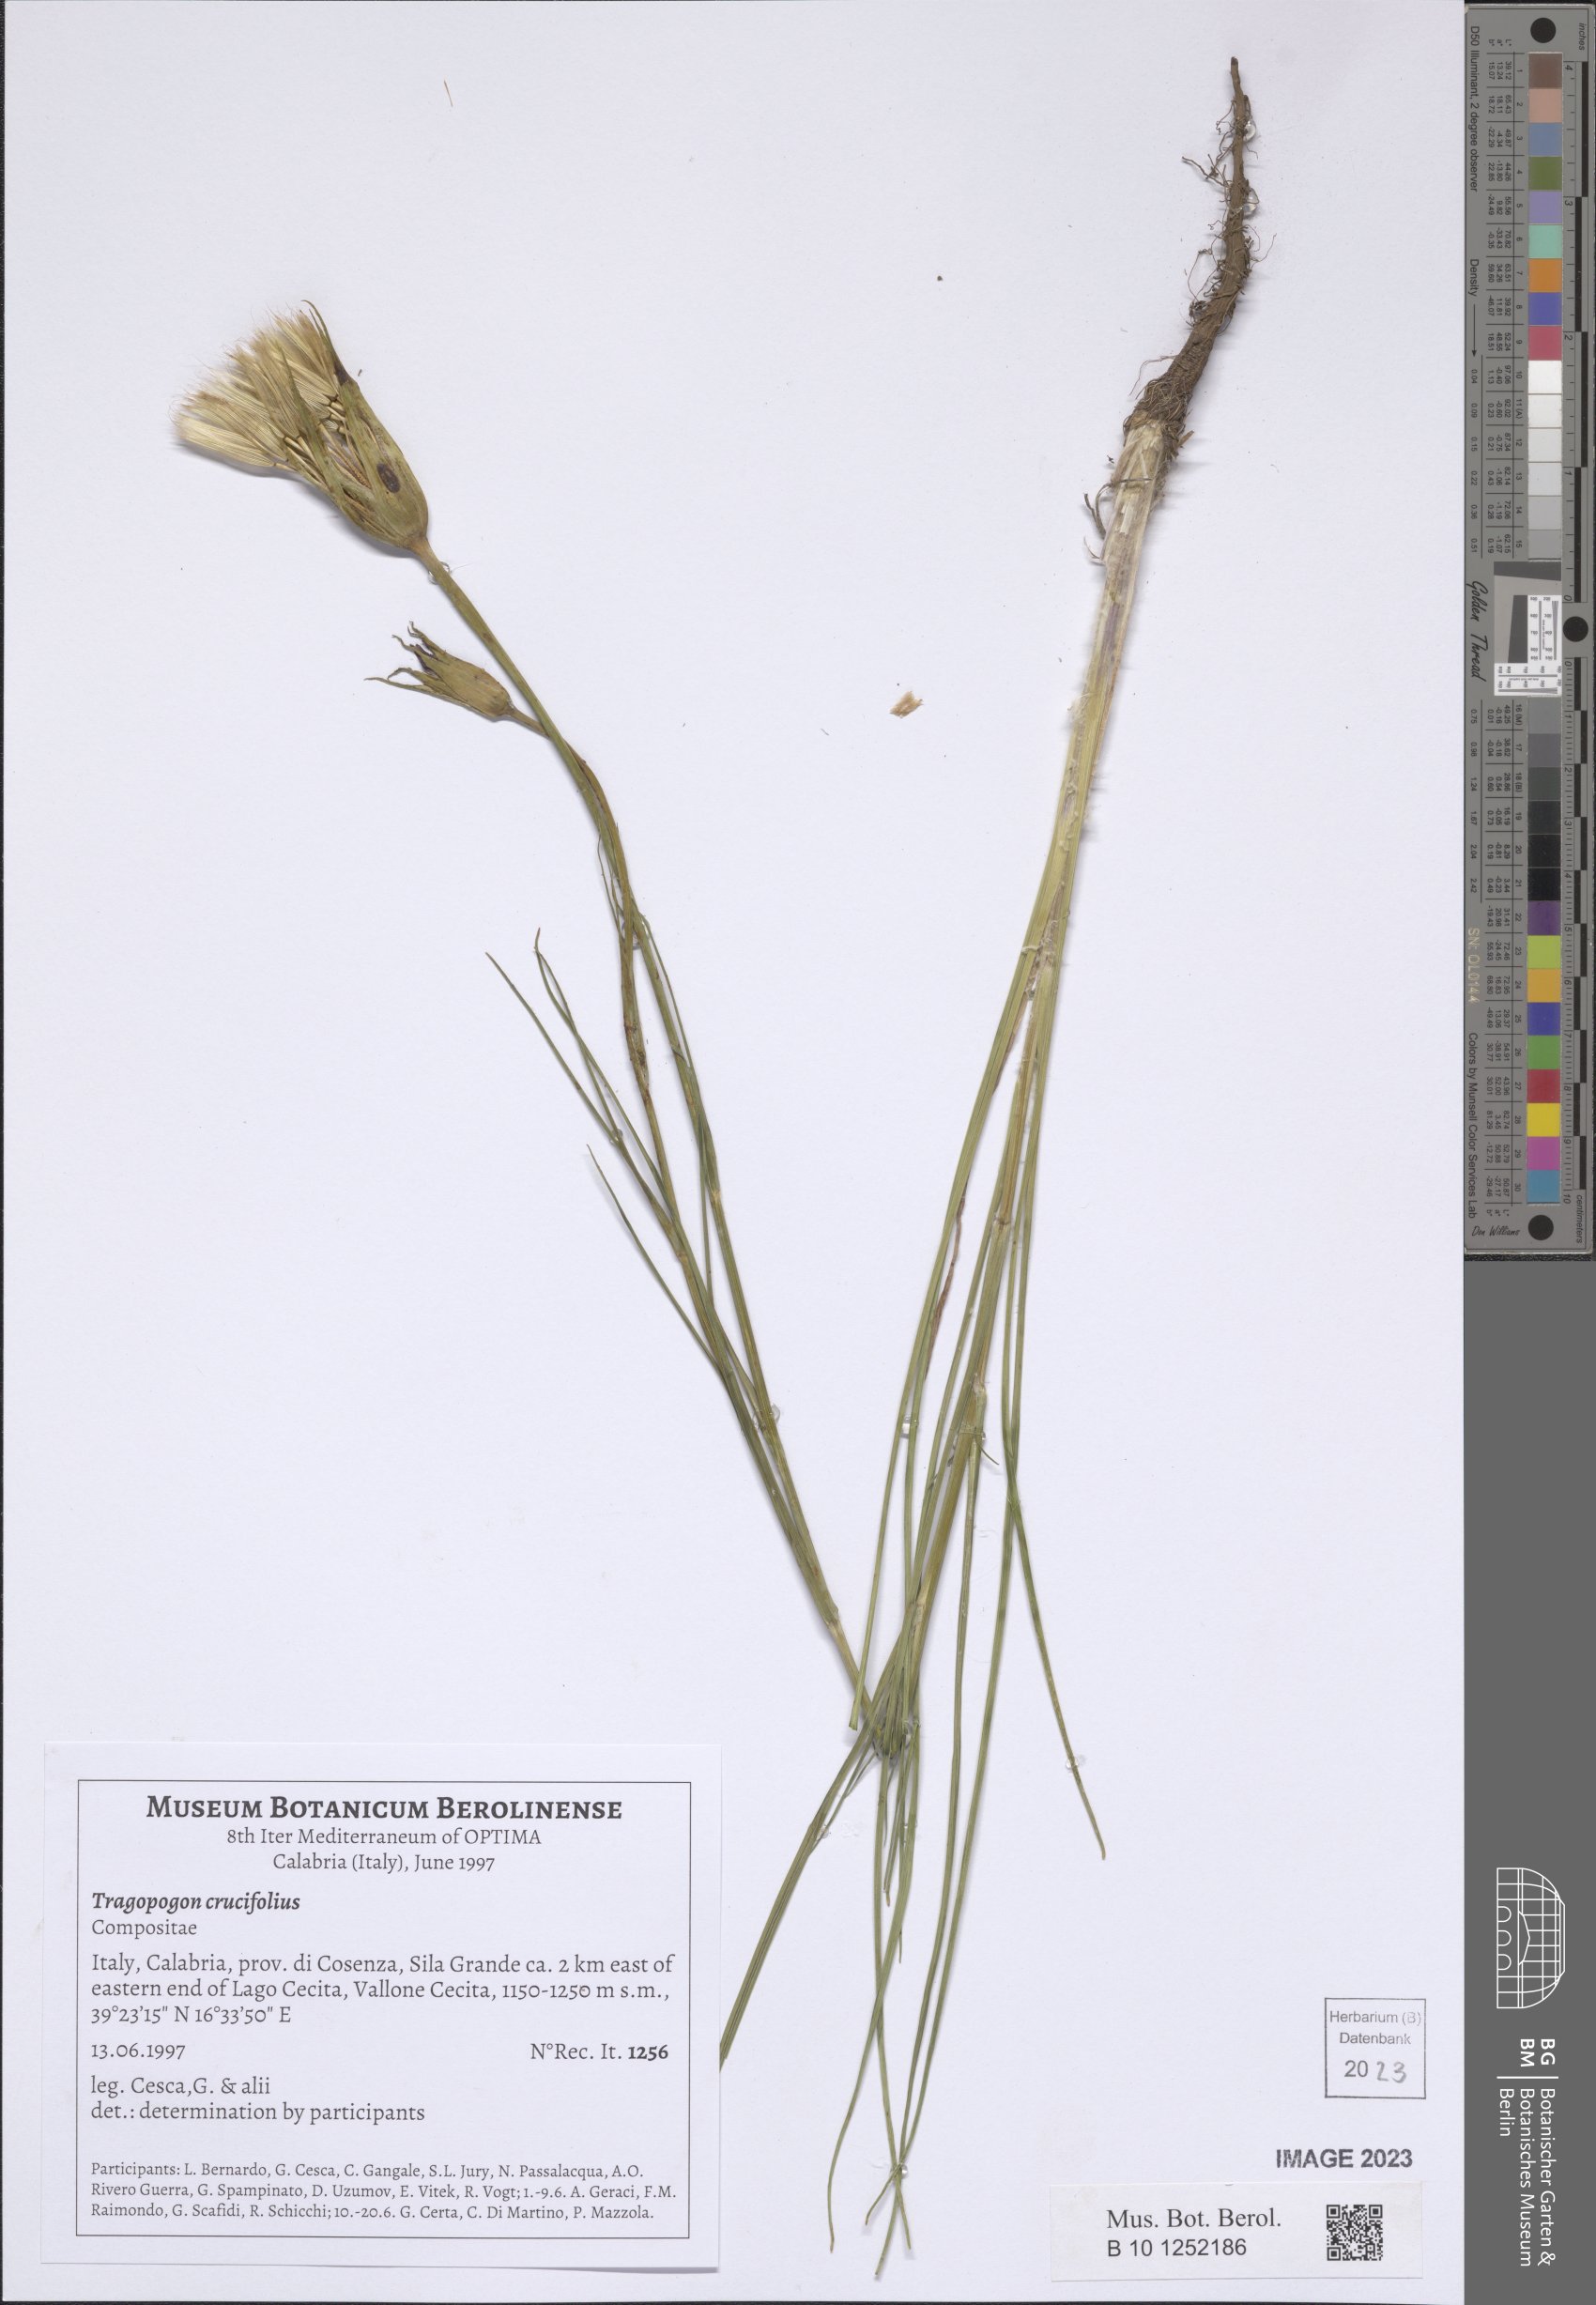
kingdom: Plantae
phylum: Tracheophyta
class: Magnoliopsida
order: Asterales
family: Asteraceae
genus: Tragopogon
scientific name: Tragopogon crocifolius
